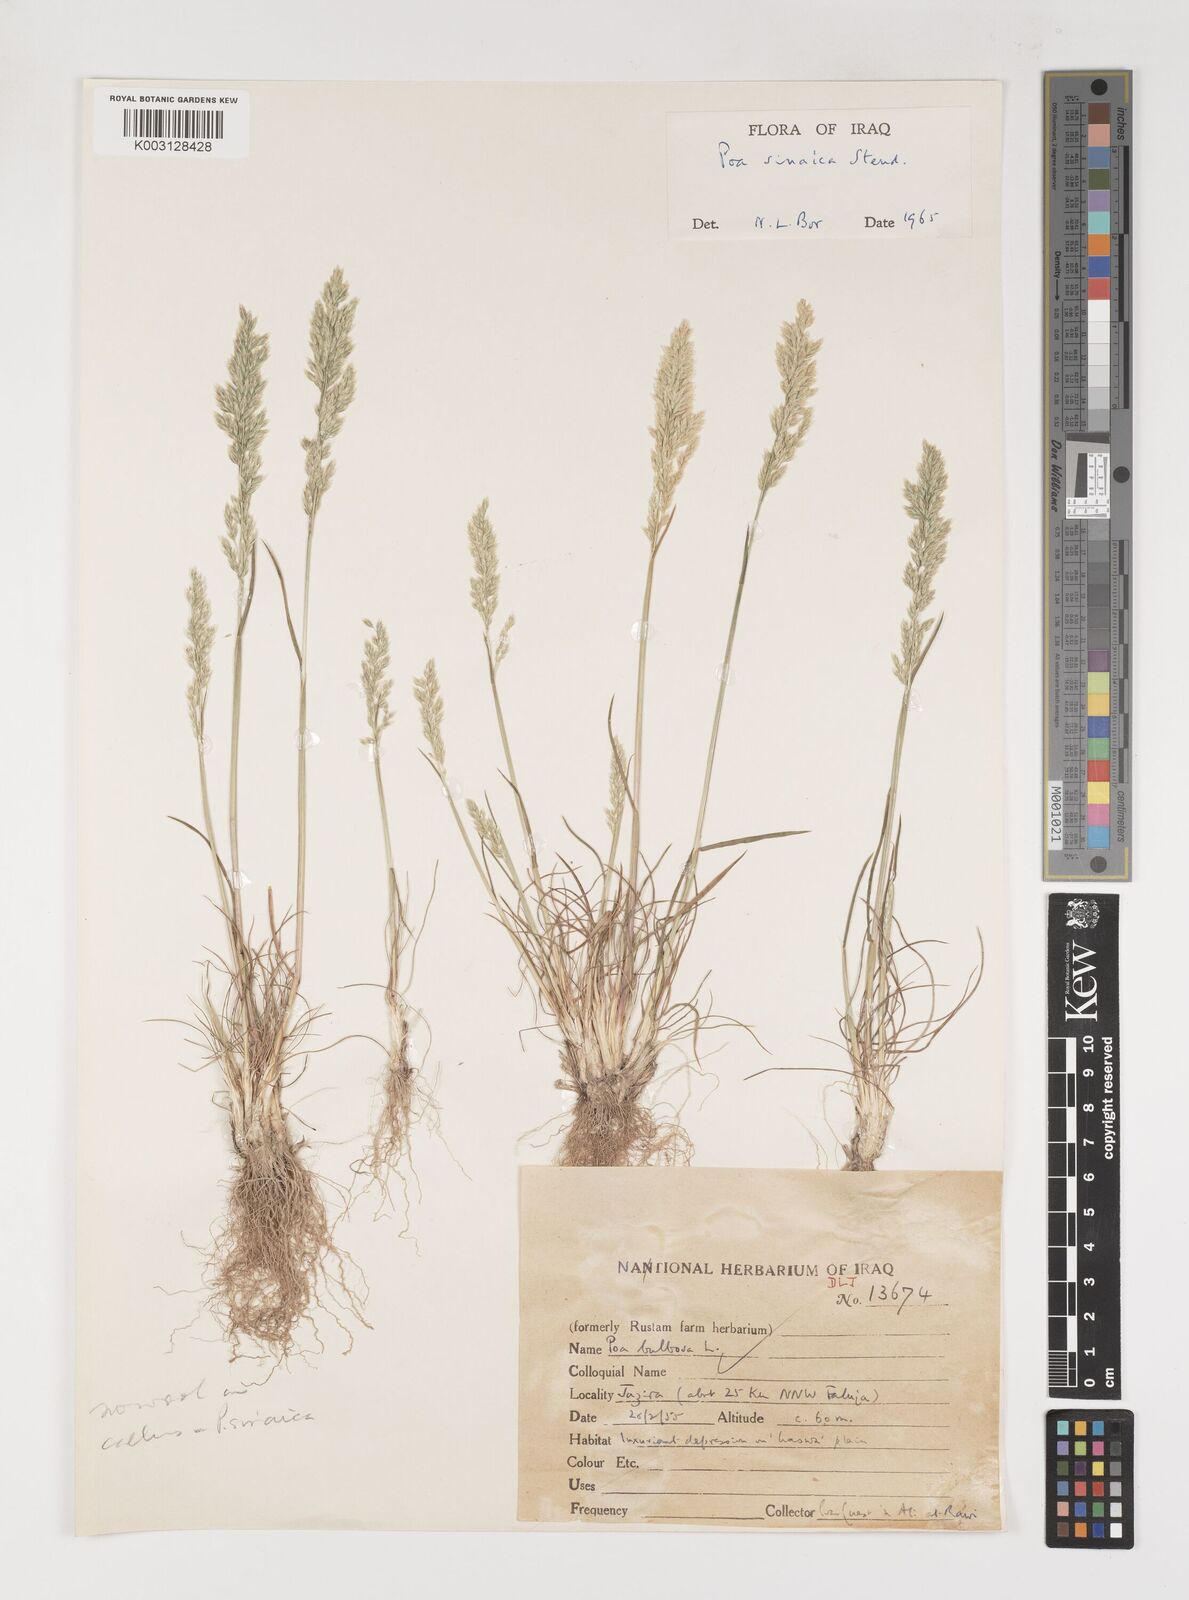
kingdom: Plantae
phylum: Tracheophyta
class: Liliopsida
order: Poales
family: Poaceae
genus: Poa
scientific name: Poa sinaica
